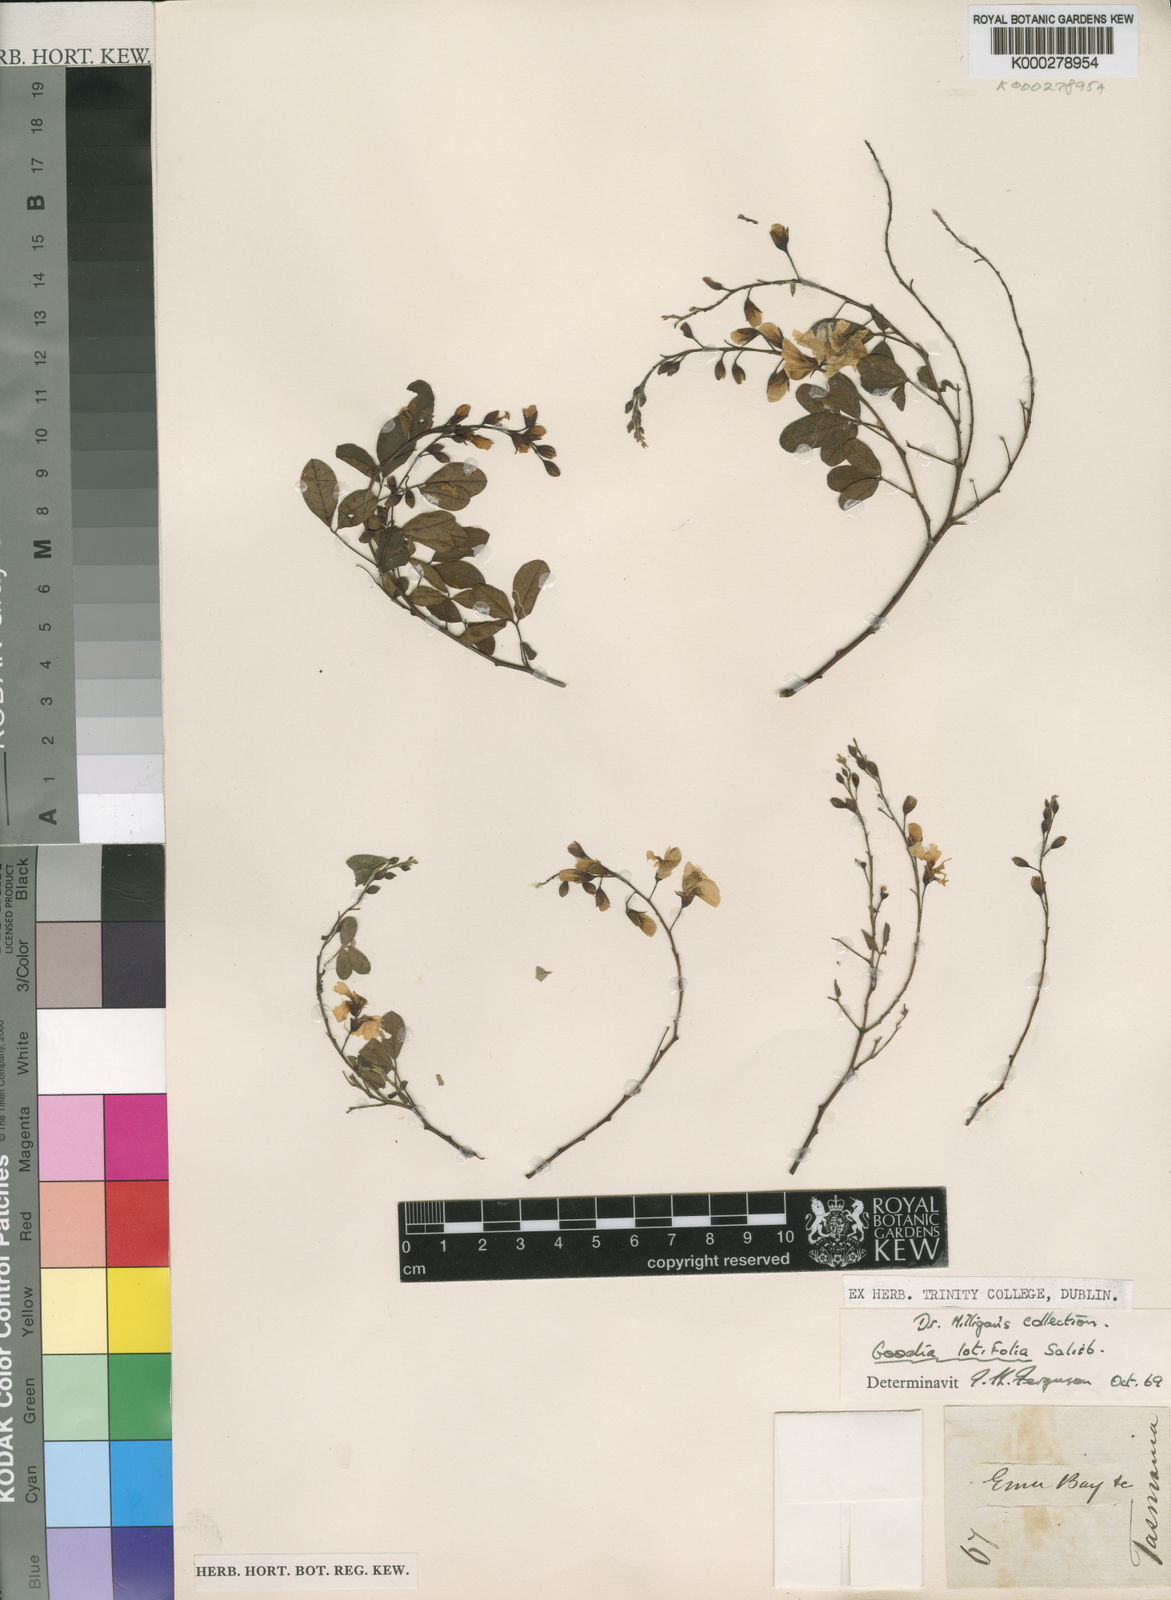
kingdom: Plantae
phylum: Tracheophyta
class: Magnoliopsida
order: Fabales
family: Fabaceae
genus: Goodia
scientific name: Goodia lotifolia
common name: Cloverleaf-poison
